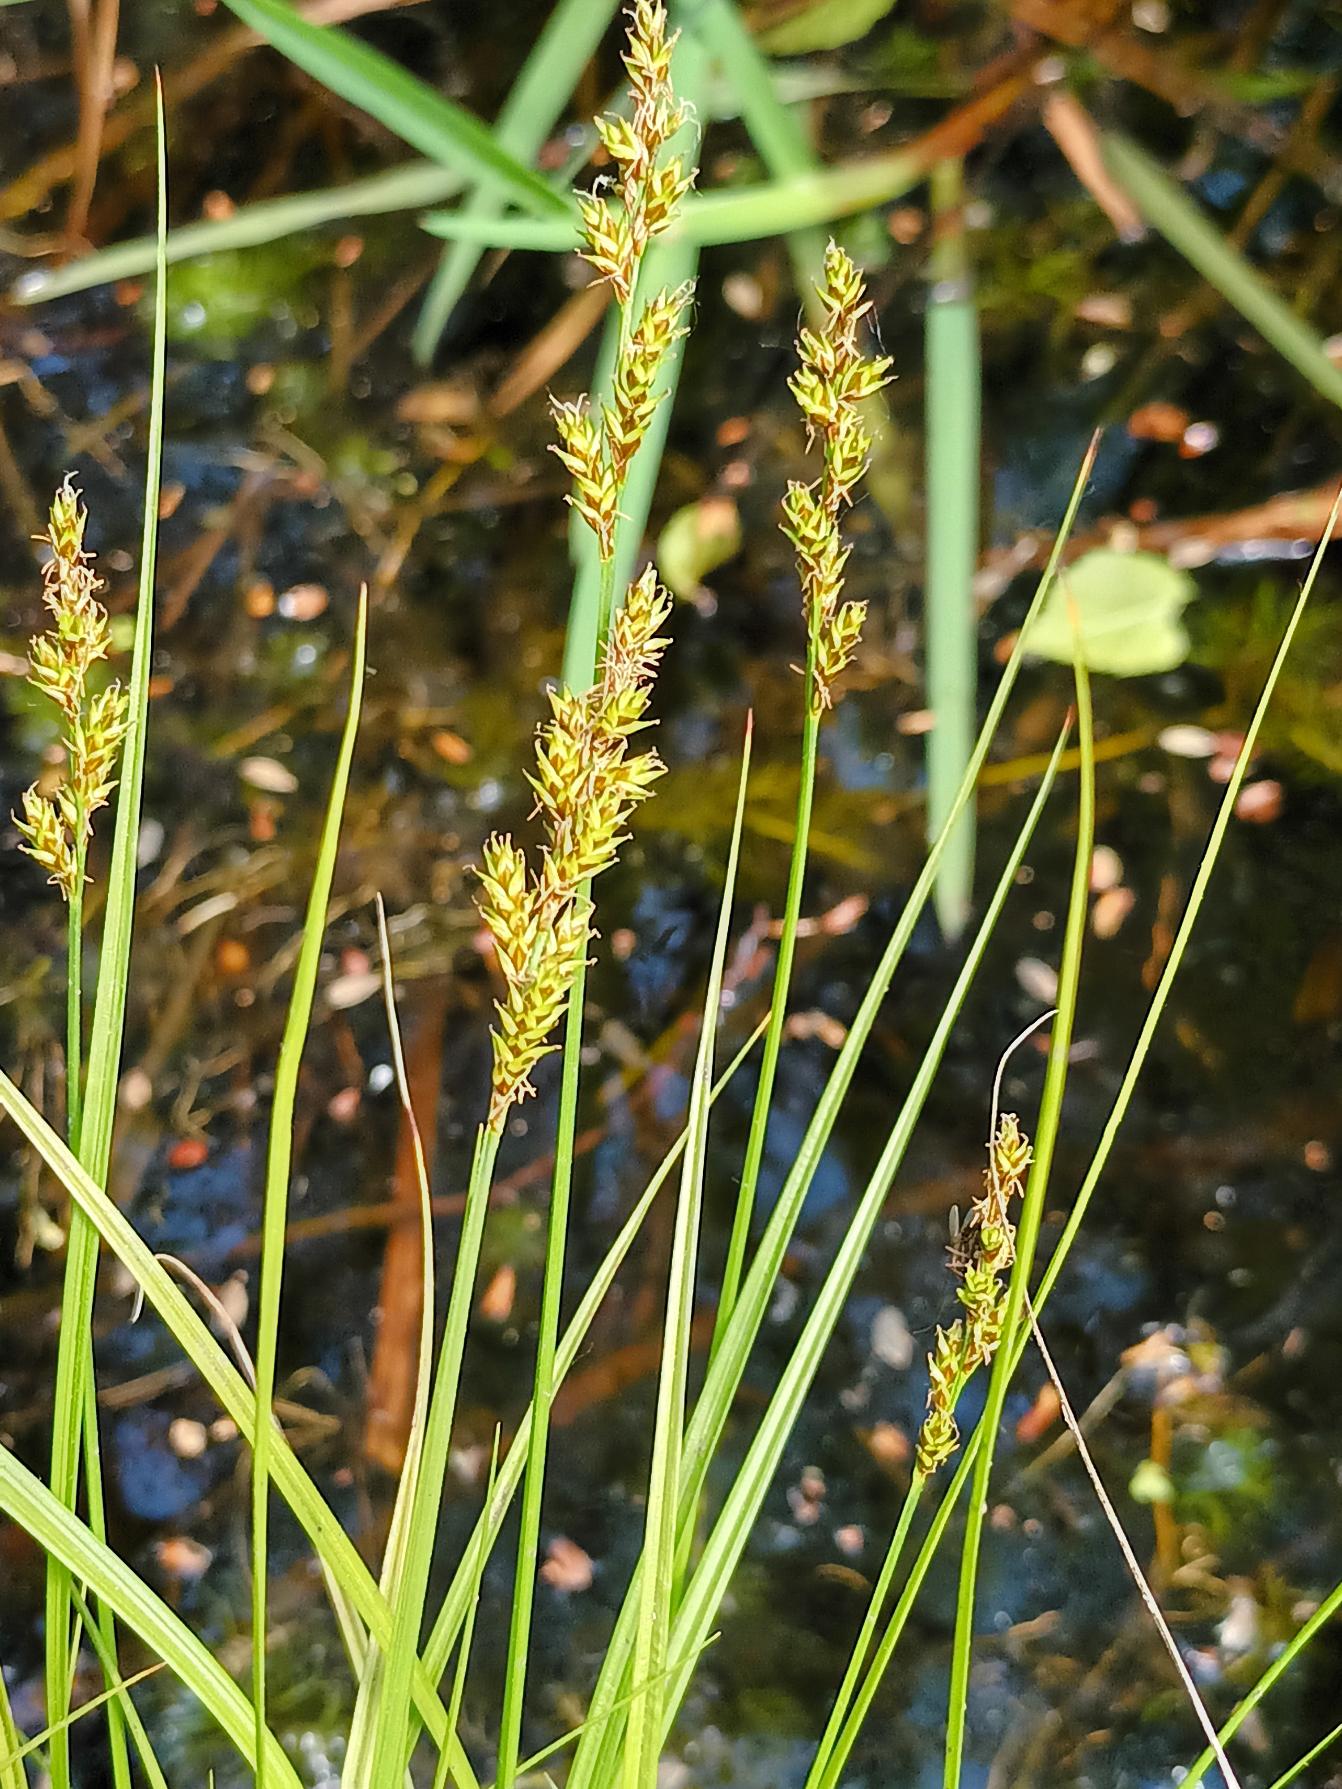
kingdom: Plantae
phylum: Tracheophyta
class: Liliopsida
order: Poales
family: Cyperaceae
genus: Carex
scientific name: Carex elongata
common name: Forlænget star
